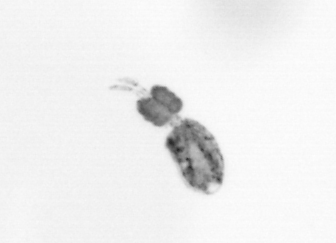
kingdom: Animalia
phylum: Arthropoda
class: Copepoda
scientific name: Copepoda
